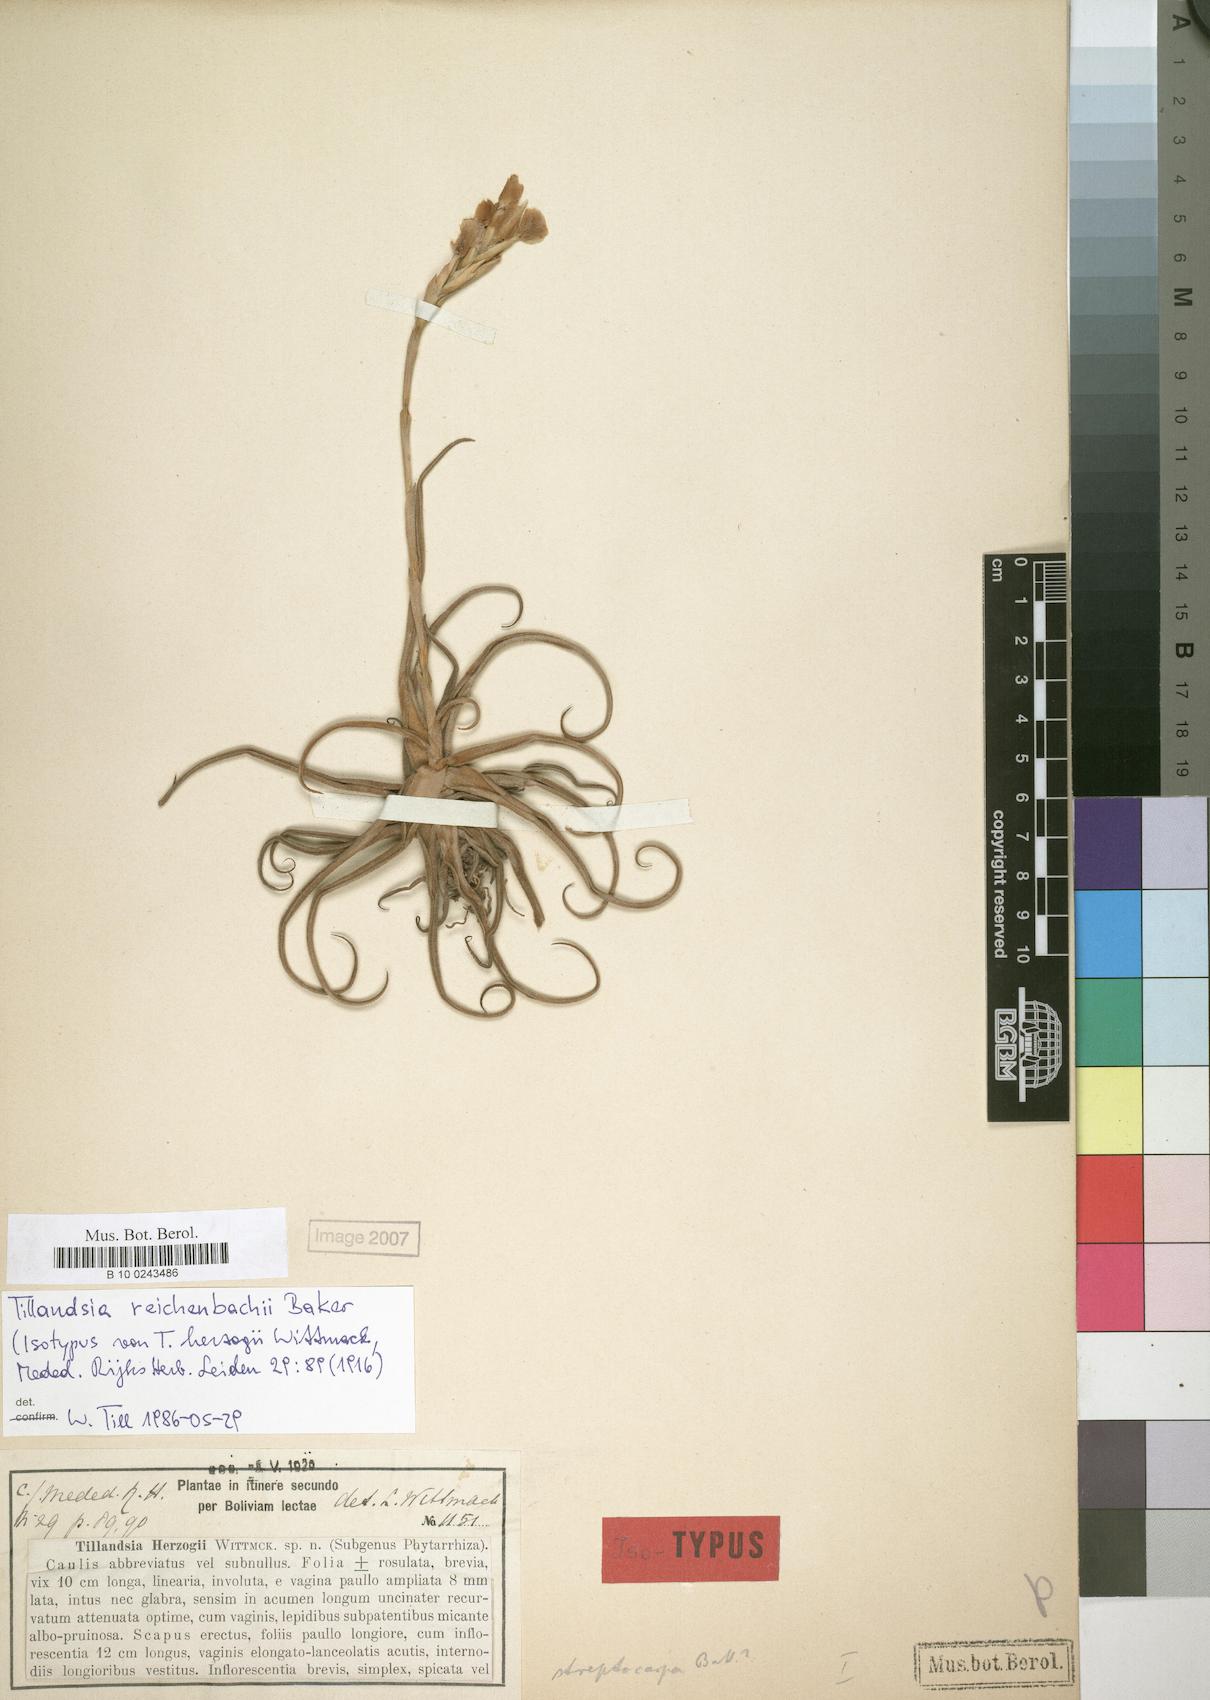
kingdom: Plantae
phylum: Tracheophyta
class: Liliopsida
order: Poales
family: Bromeliaceae
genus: Tillandsia
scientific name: Tillandsia reichenbachii
